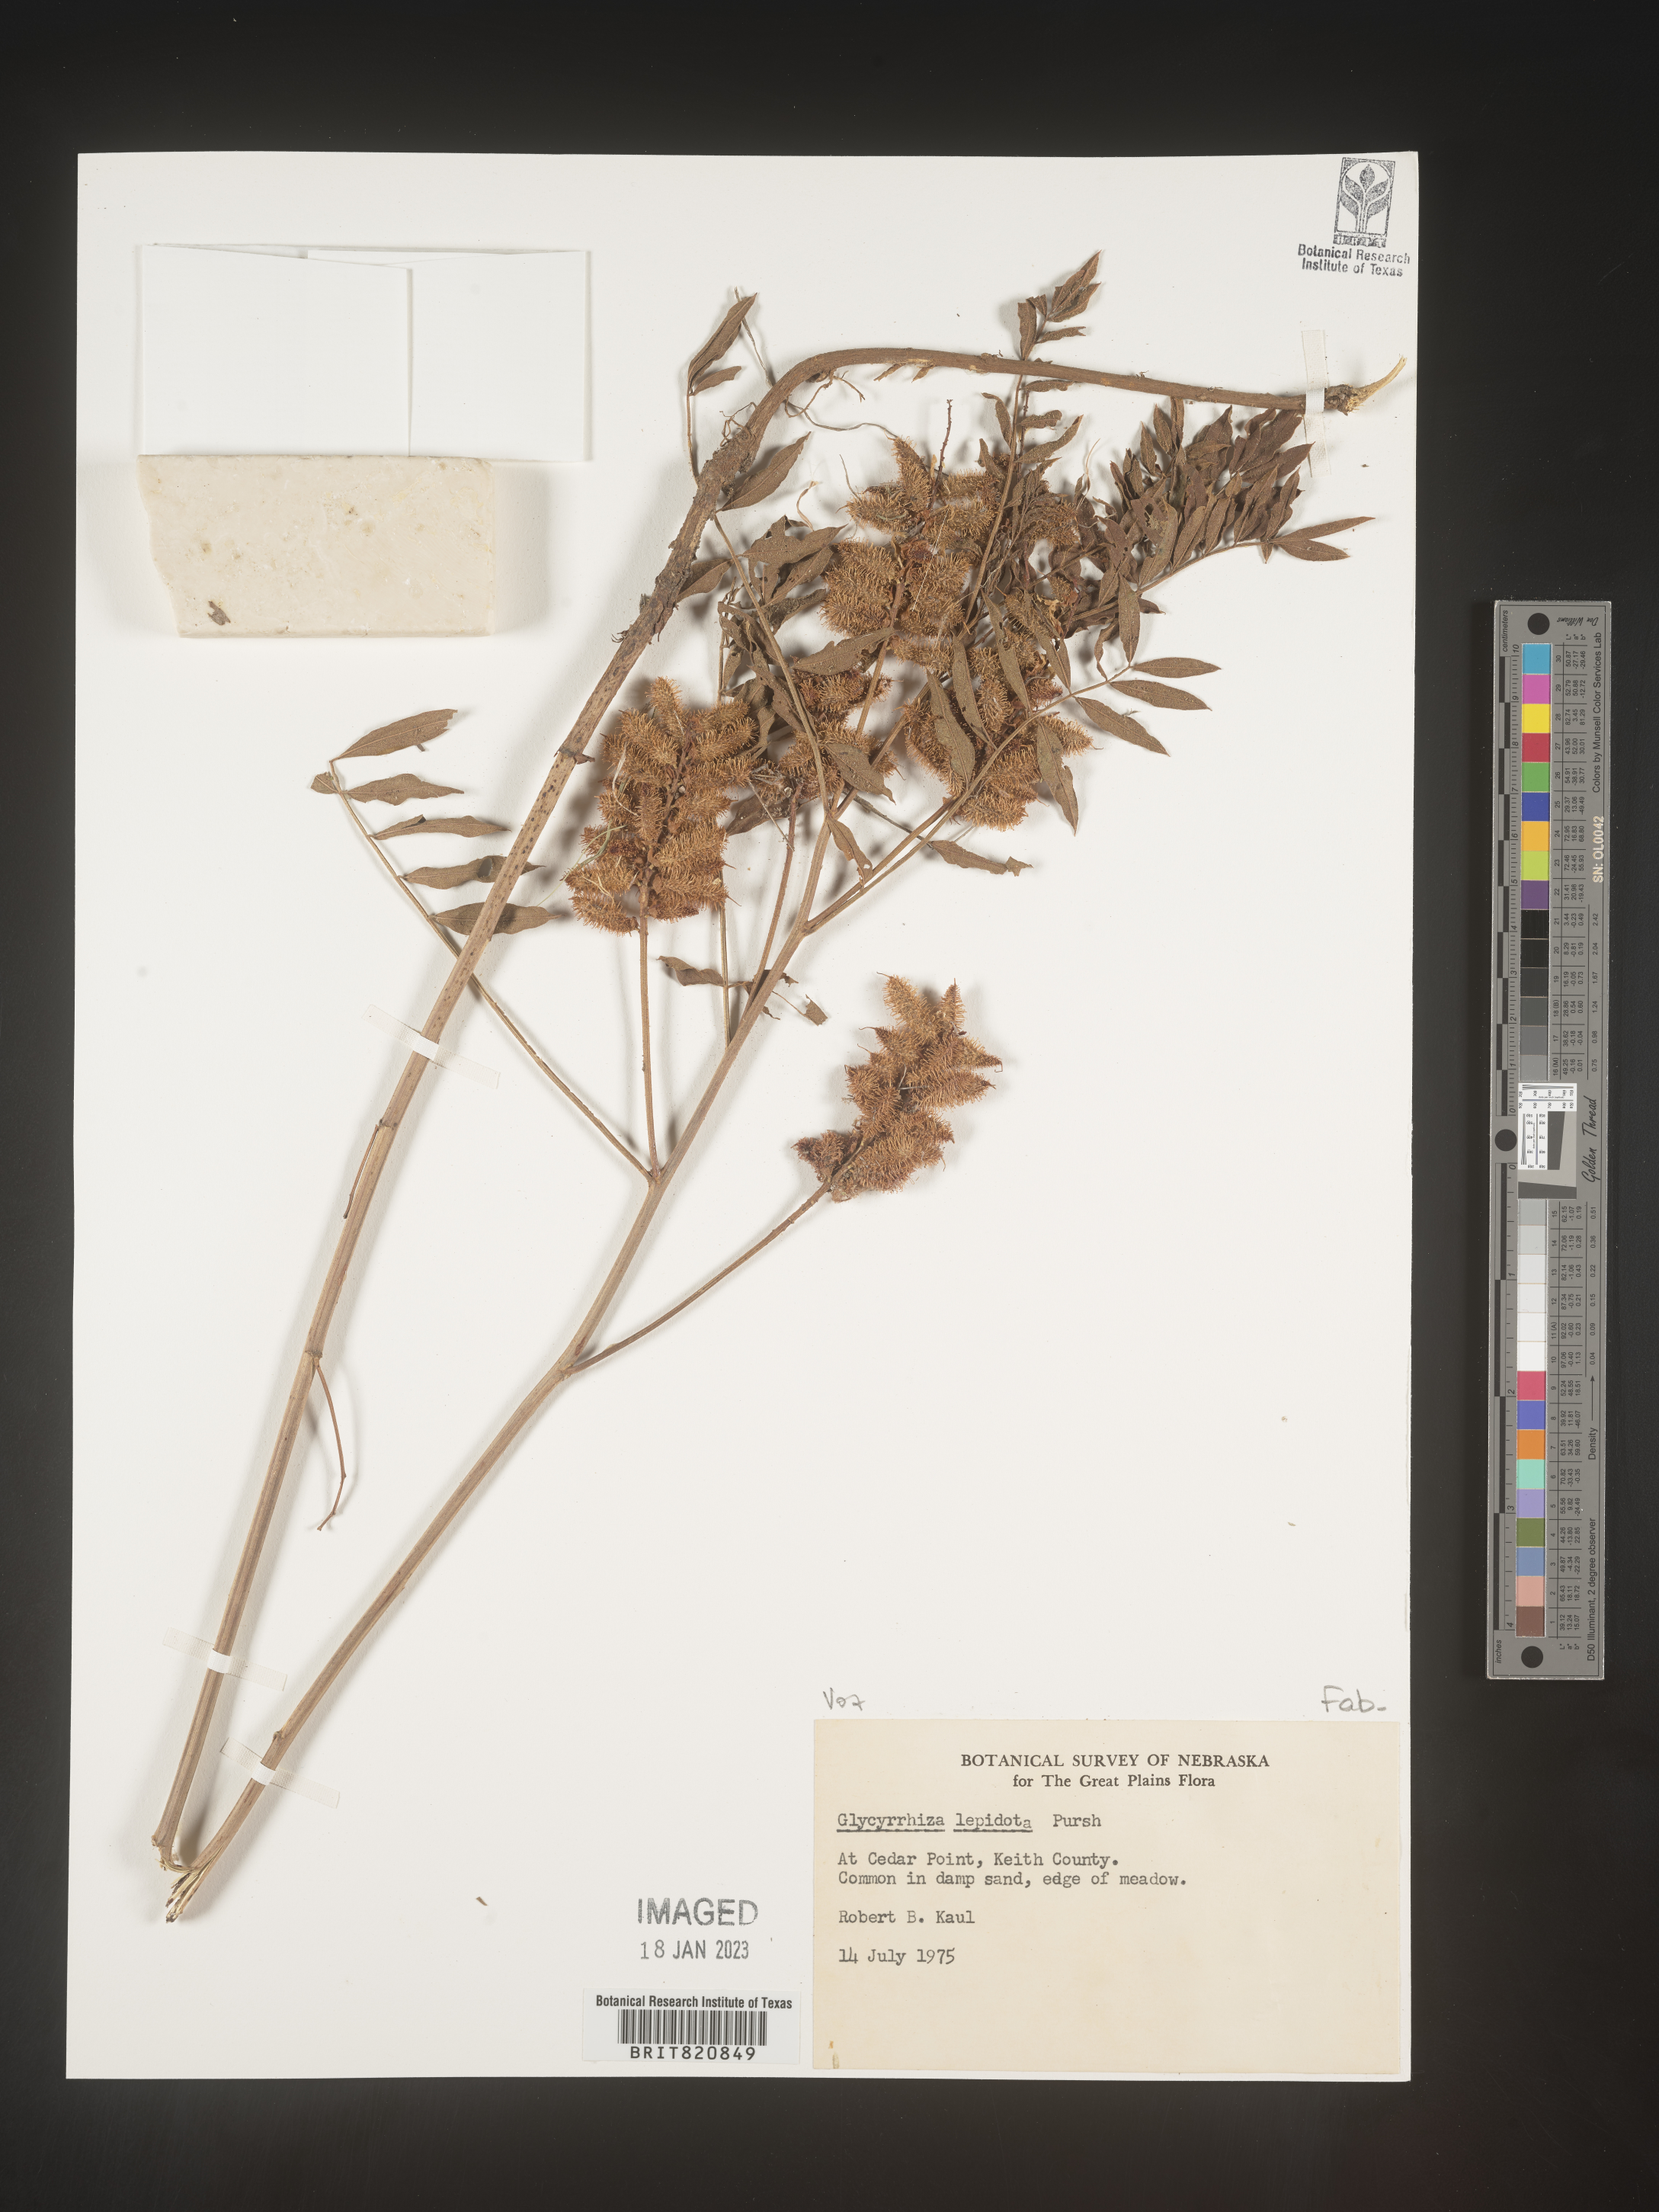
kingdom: Plantae
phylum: Tracheophyta
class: Magnoliopsida
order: Fabales
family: Fabaceae
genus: Glycyrrhiza
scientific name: Glycyrrhiza lepidota
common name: American liquorice
